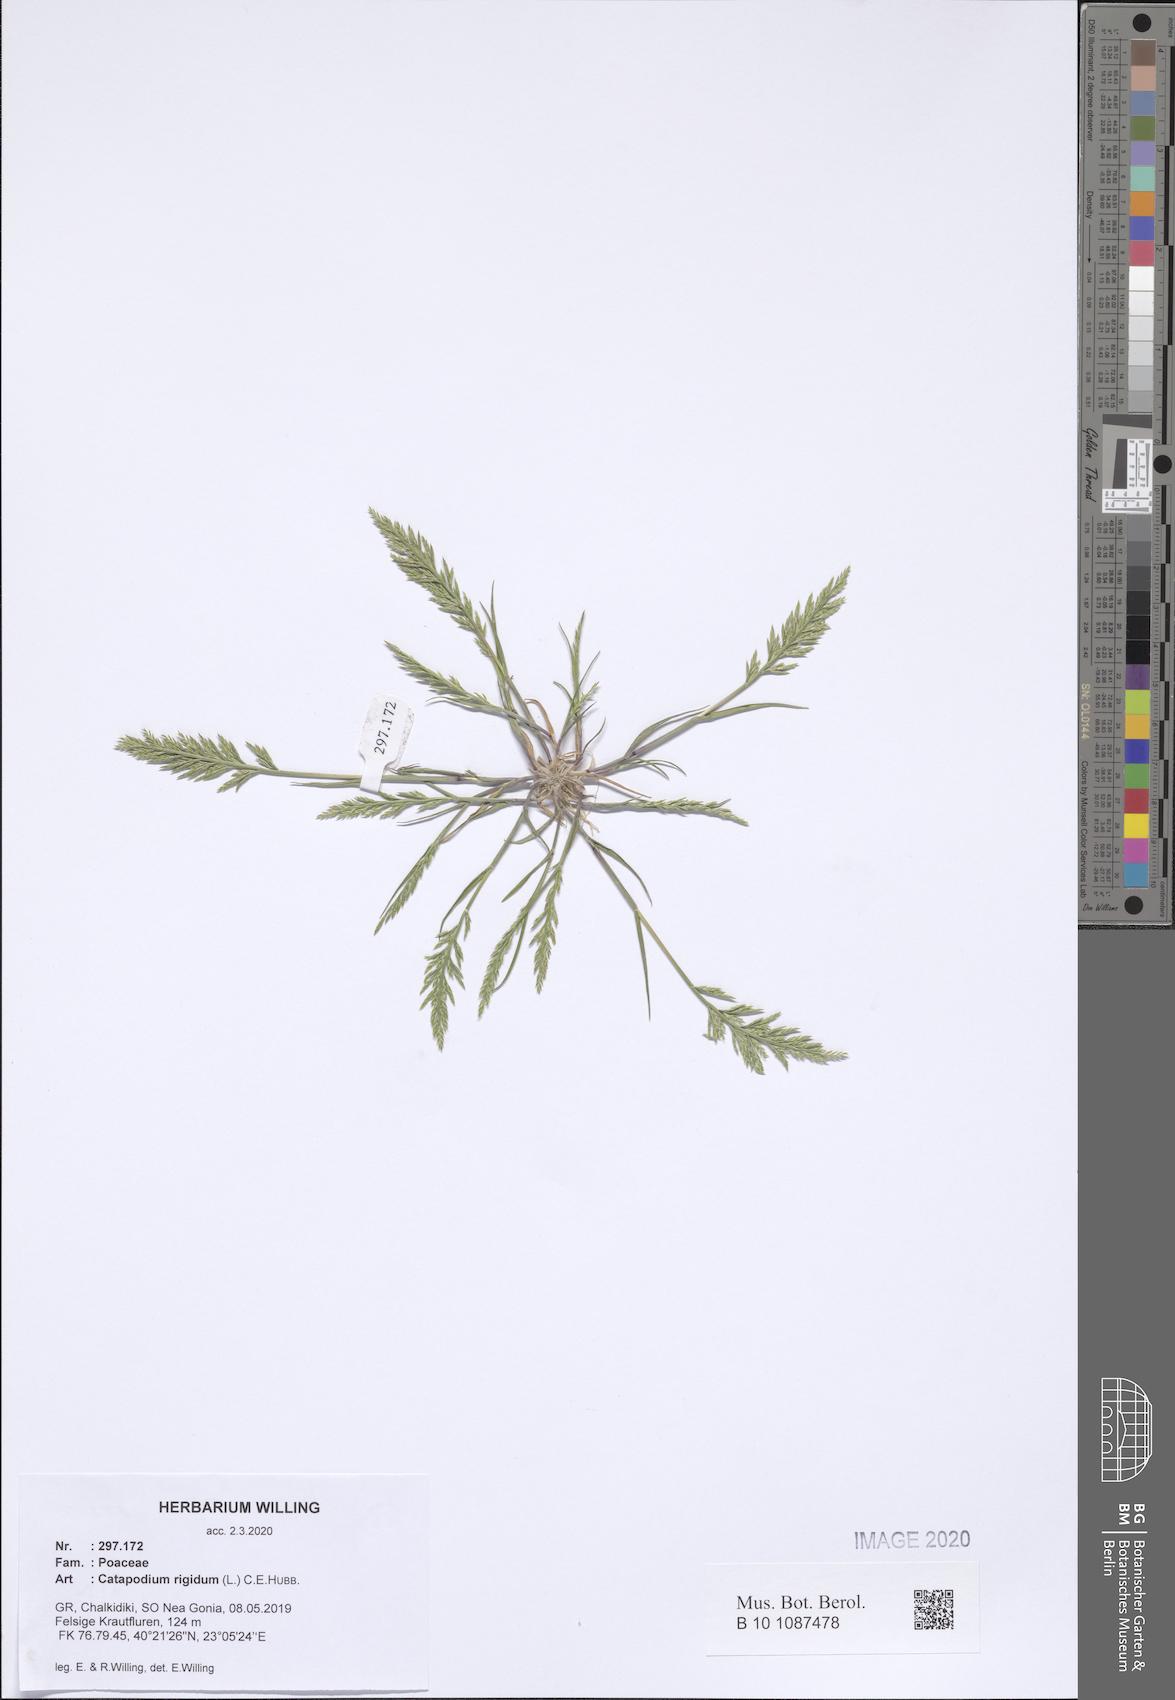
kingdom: Plantae
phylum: Tracheophyta
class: Liliopsida
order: Poales
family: Poaceae
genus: Catapodium
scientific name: Catapodium rigidum
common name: Fern-grass
